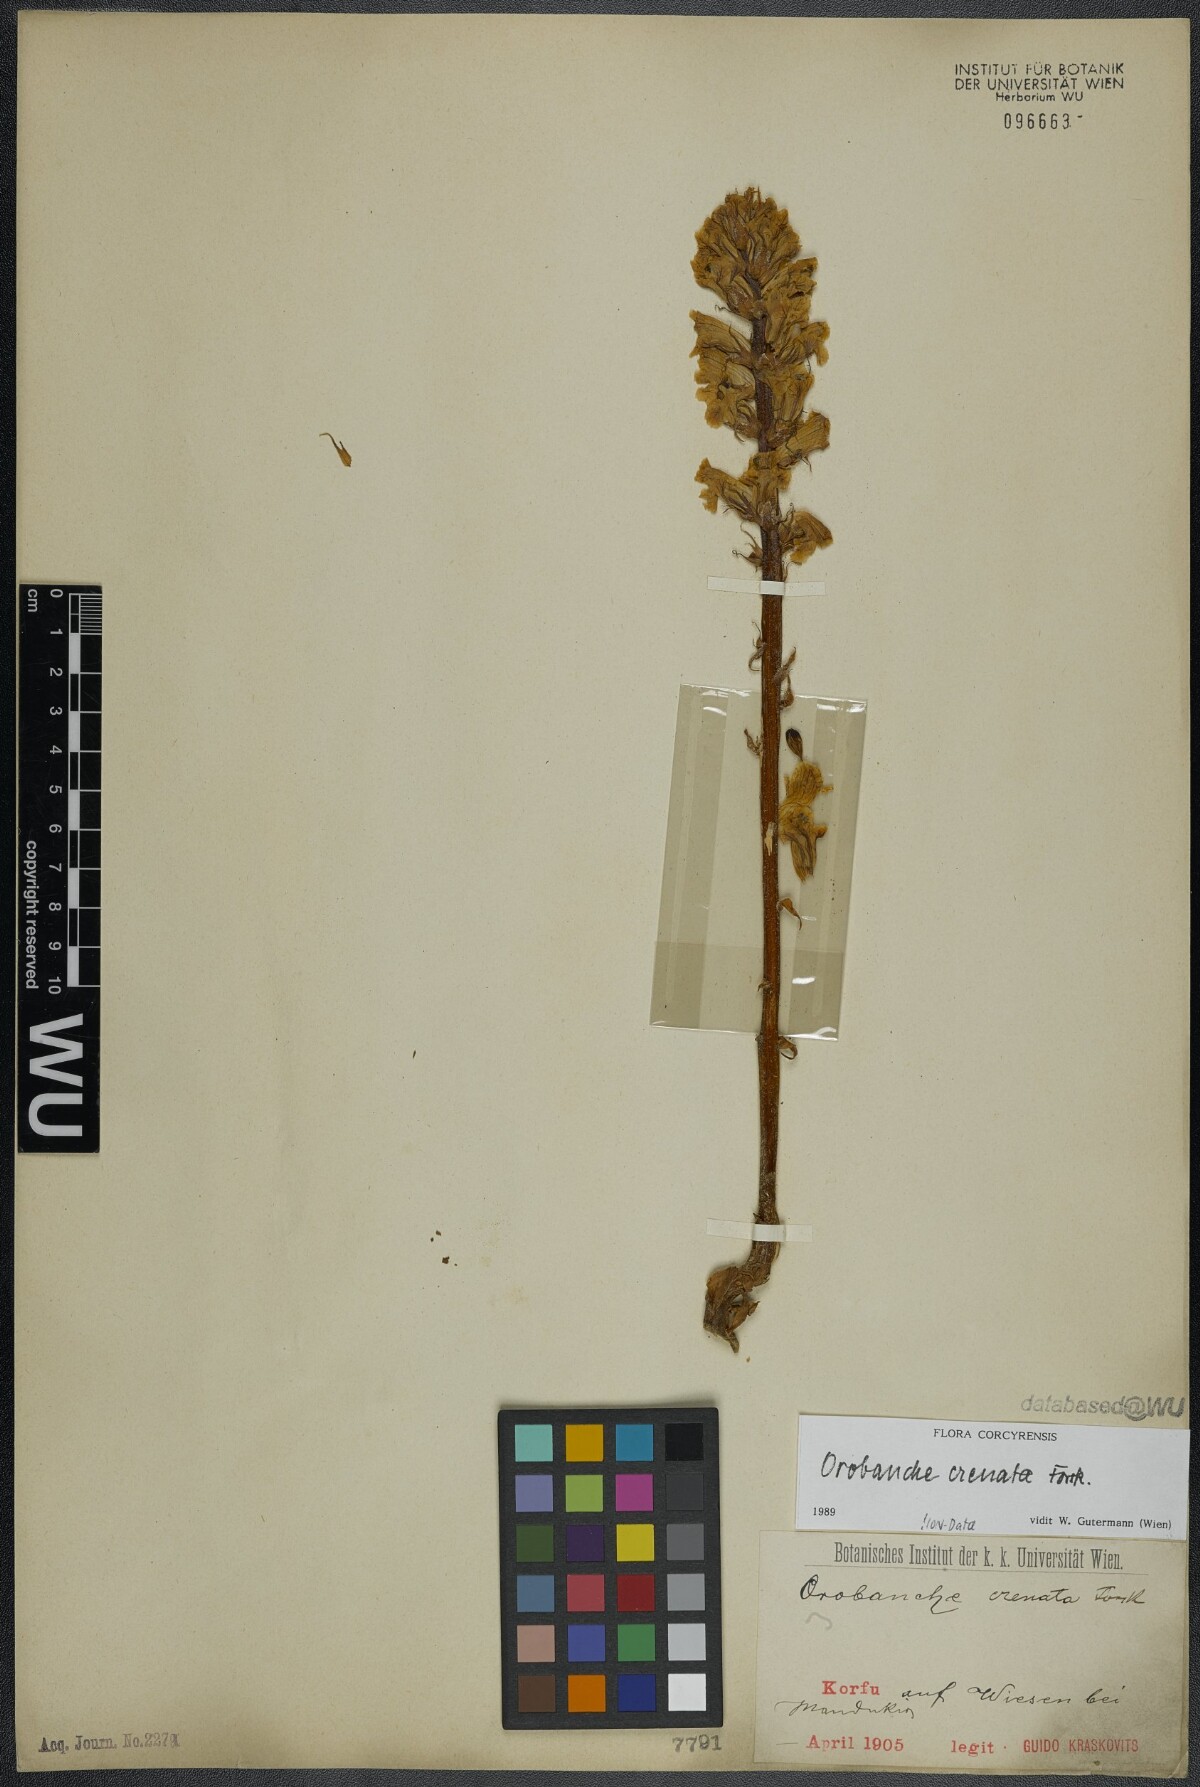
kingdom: Plantae
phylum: Tracheophyta
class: Magnoliopsida
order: Lamiales
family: Orobanchaceae
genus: Orobanche
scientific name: Orobanche crenata
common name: Bean broomrape
